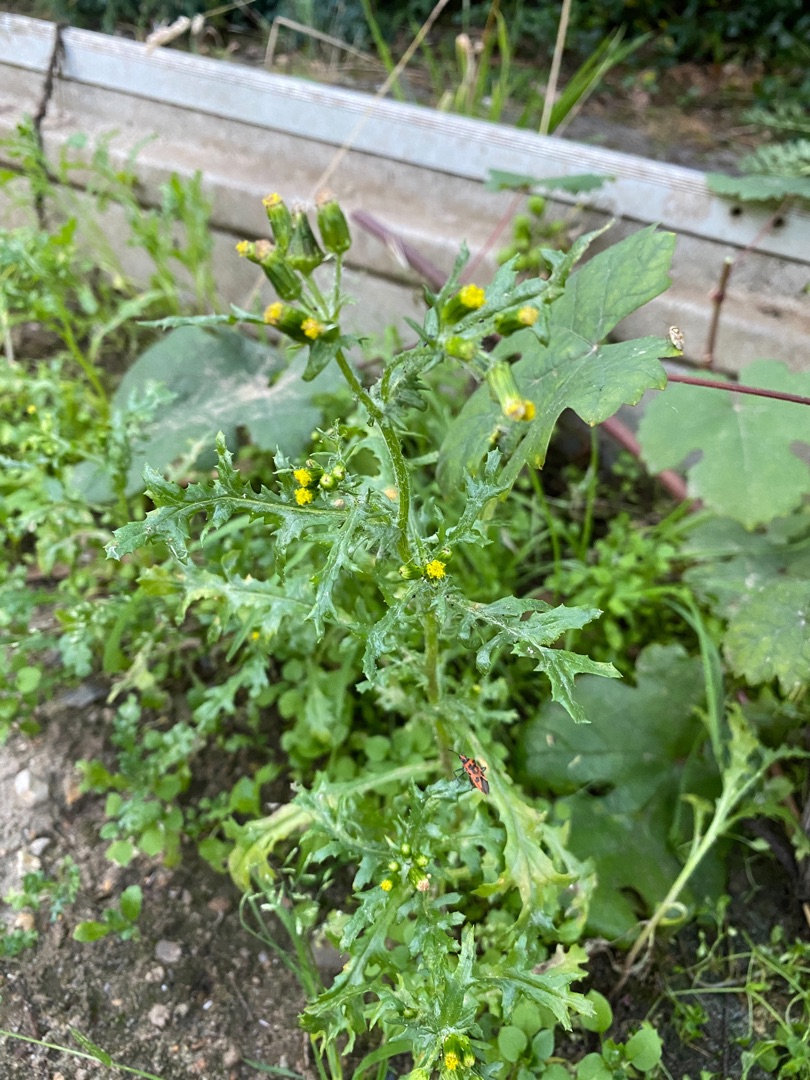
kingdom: Plantae
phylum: Tracheophyta
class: Magnoliopsida
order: Asterales
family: Asteraceae
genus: Senecio
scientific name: Senecio vulgaris
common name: Almindelig brandbæger
